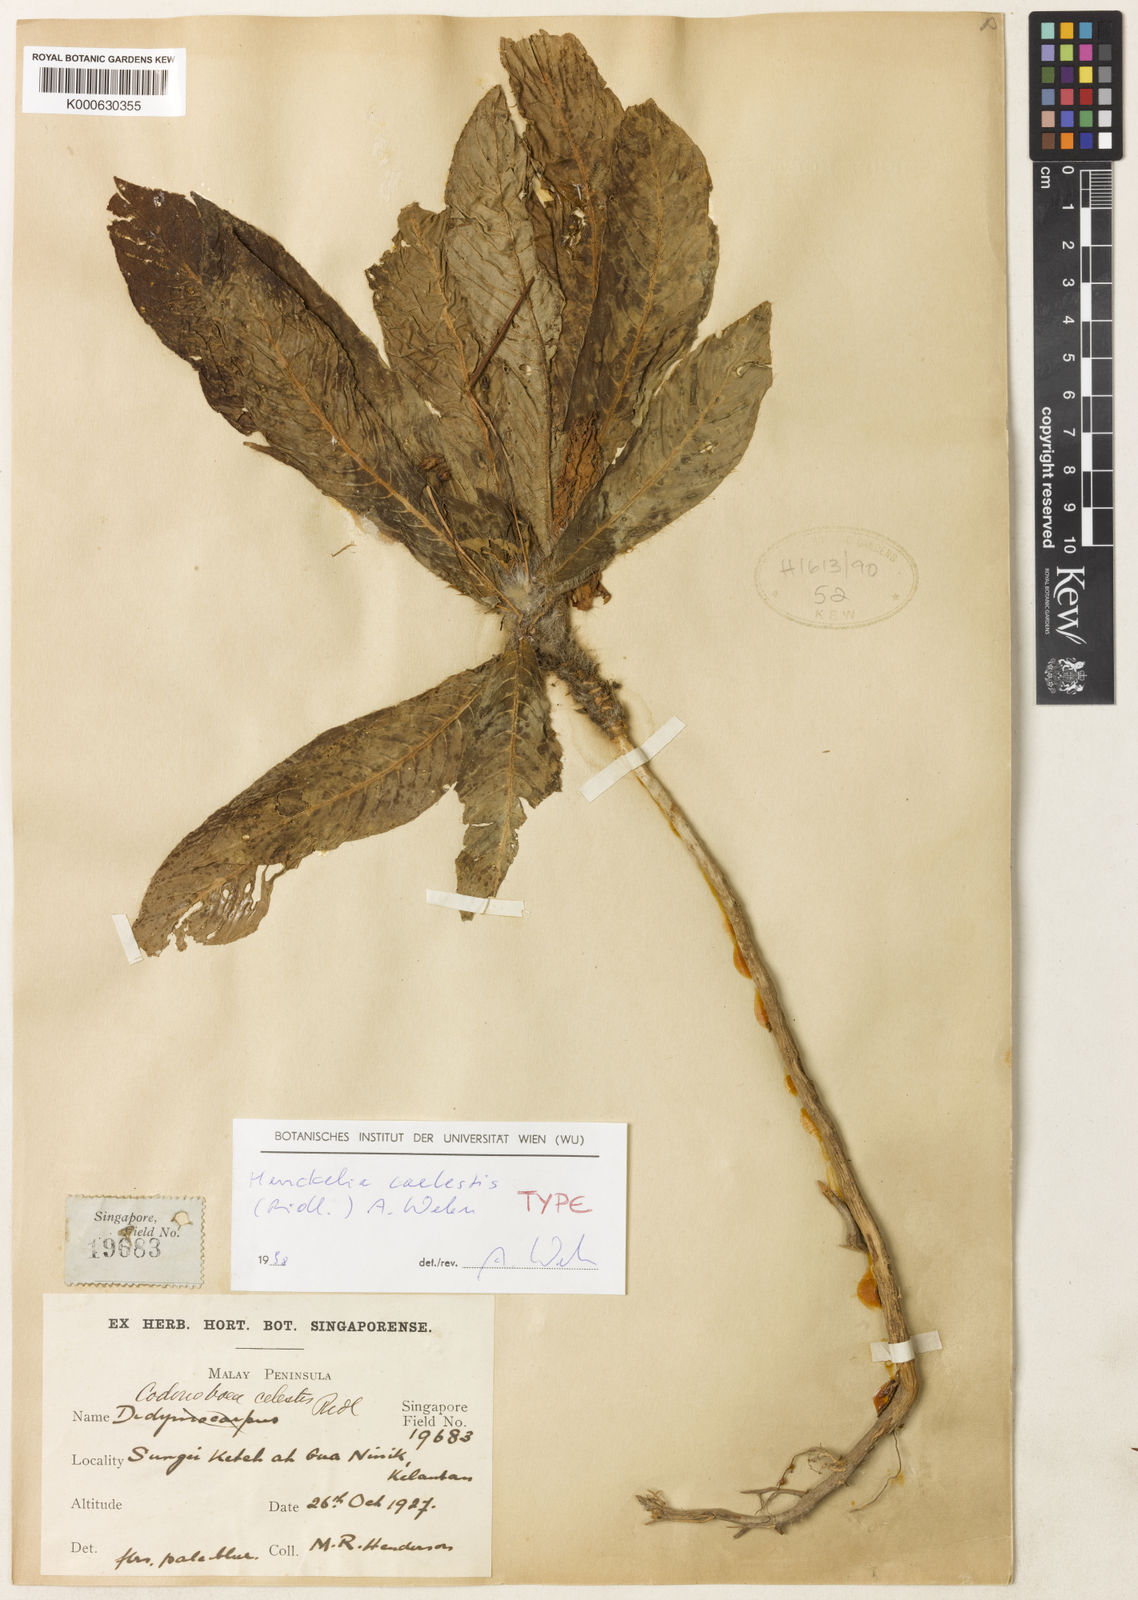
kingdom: Plantae
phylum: Tracheophyta
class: Magnoliopsida
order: Lamiales
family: Gesneriaceae
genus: Codonoboea
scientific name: Codonoboea caelestis
